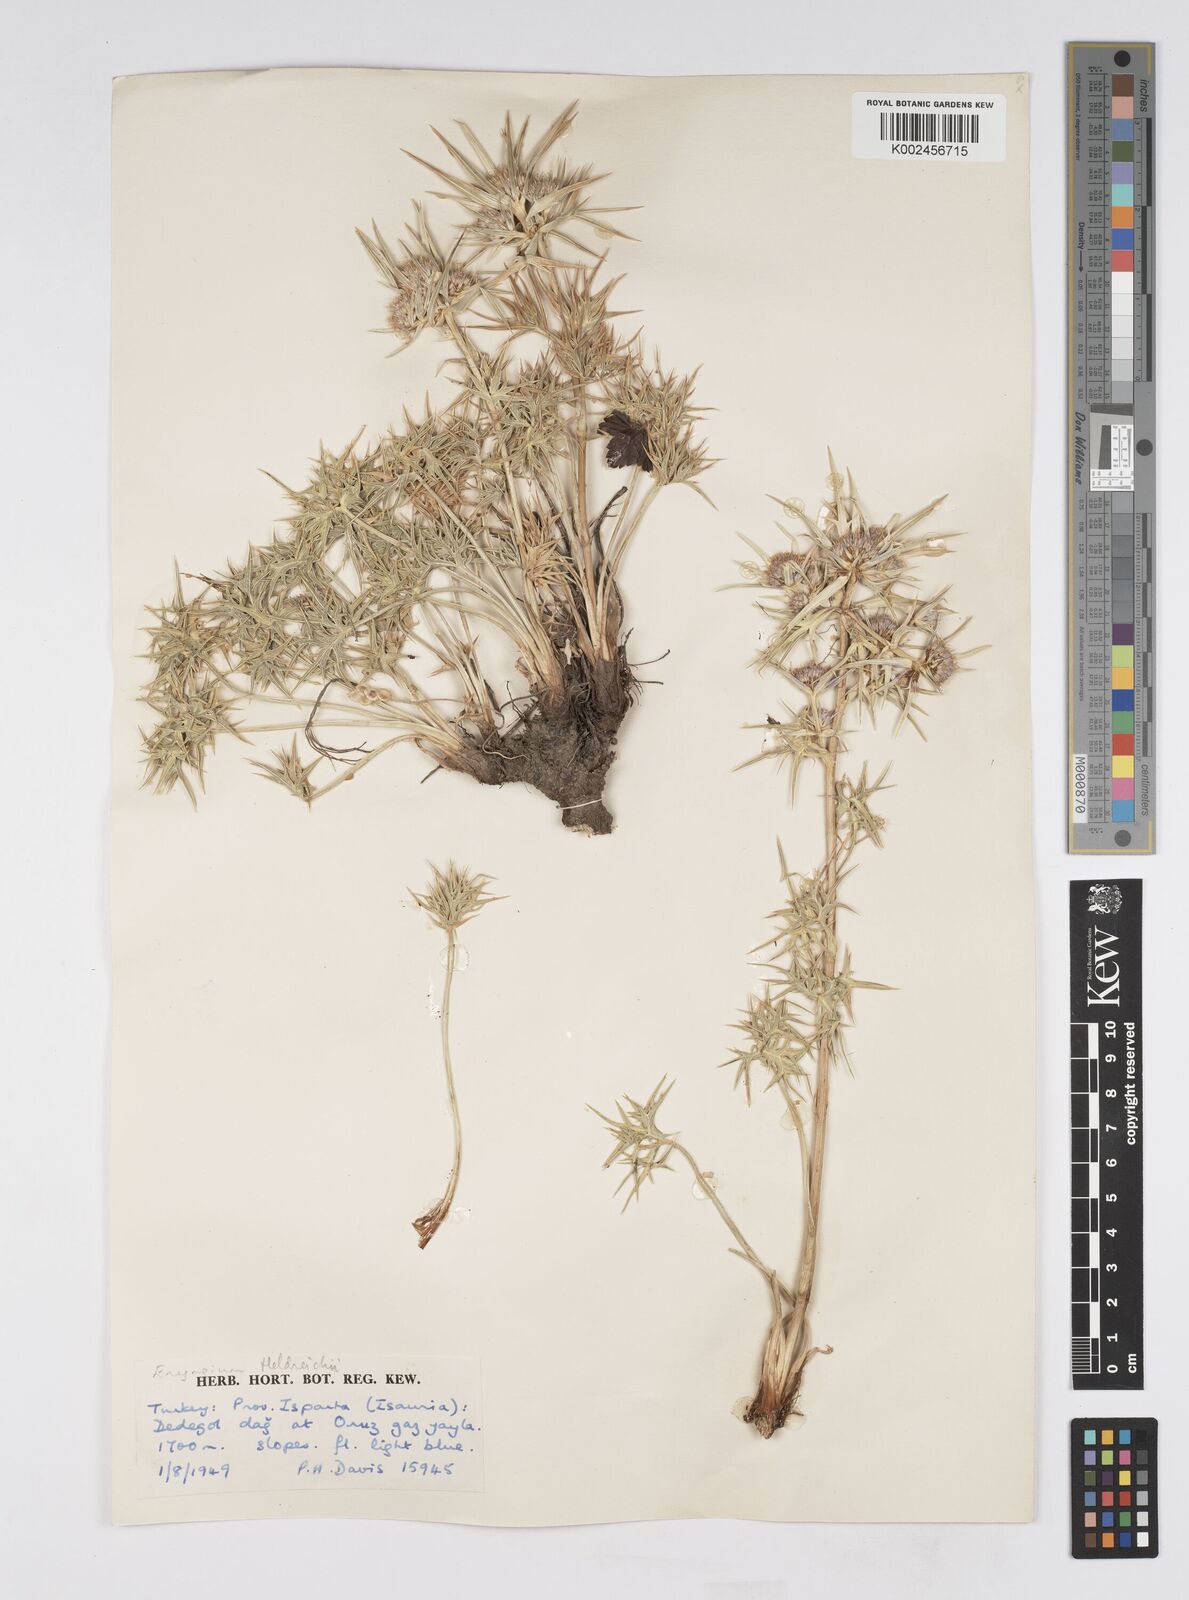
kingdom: Plantae
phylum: Tracheophyta
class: Magnoliopsida
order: Apiales
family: Apiaceae
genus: Eryngium
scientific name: Eryngium heldreichii
